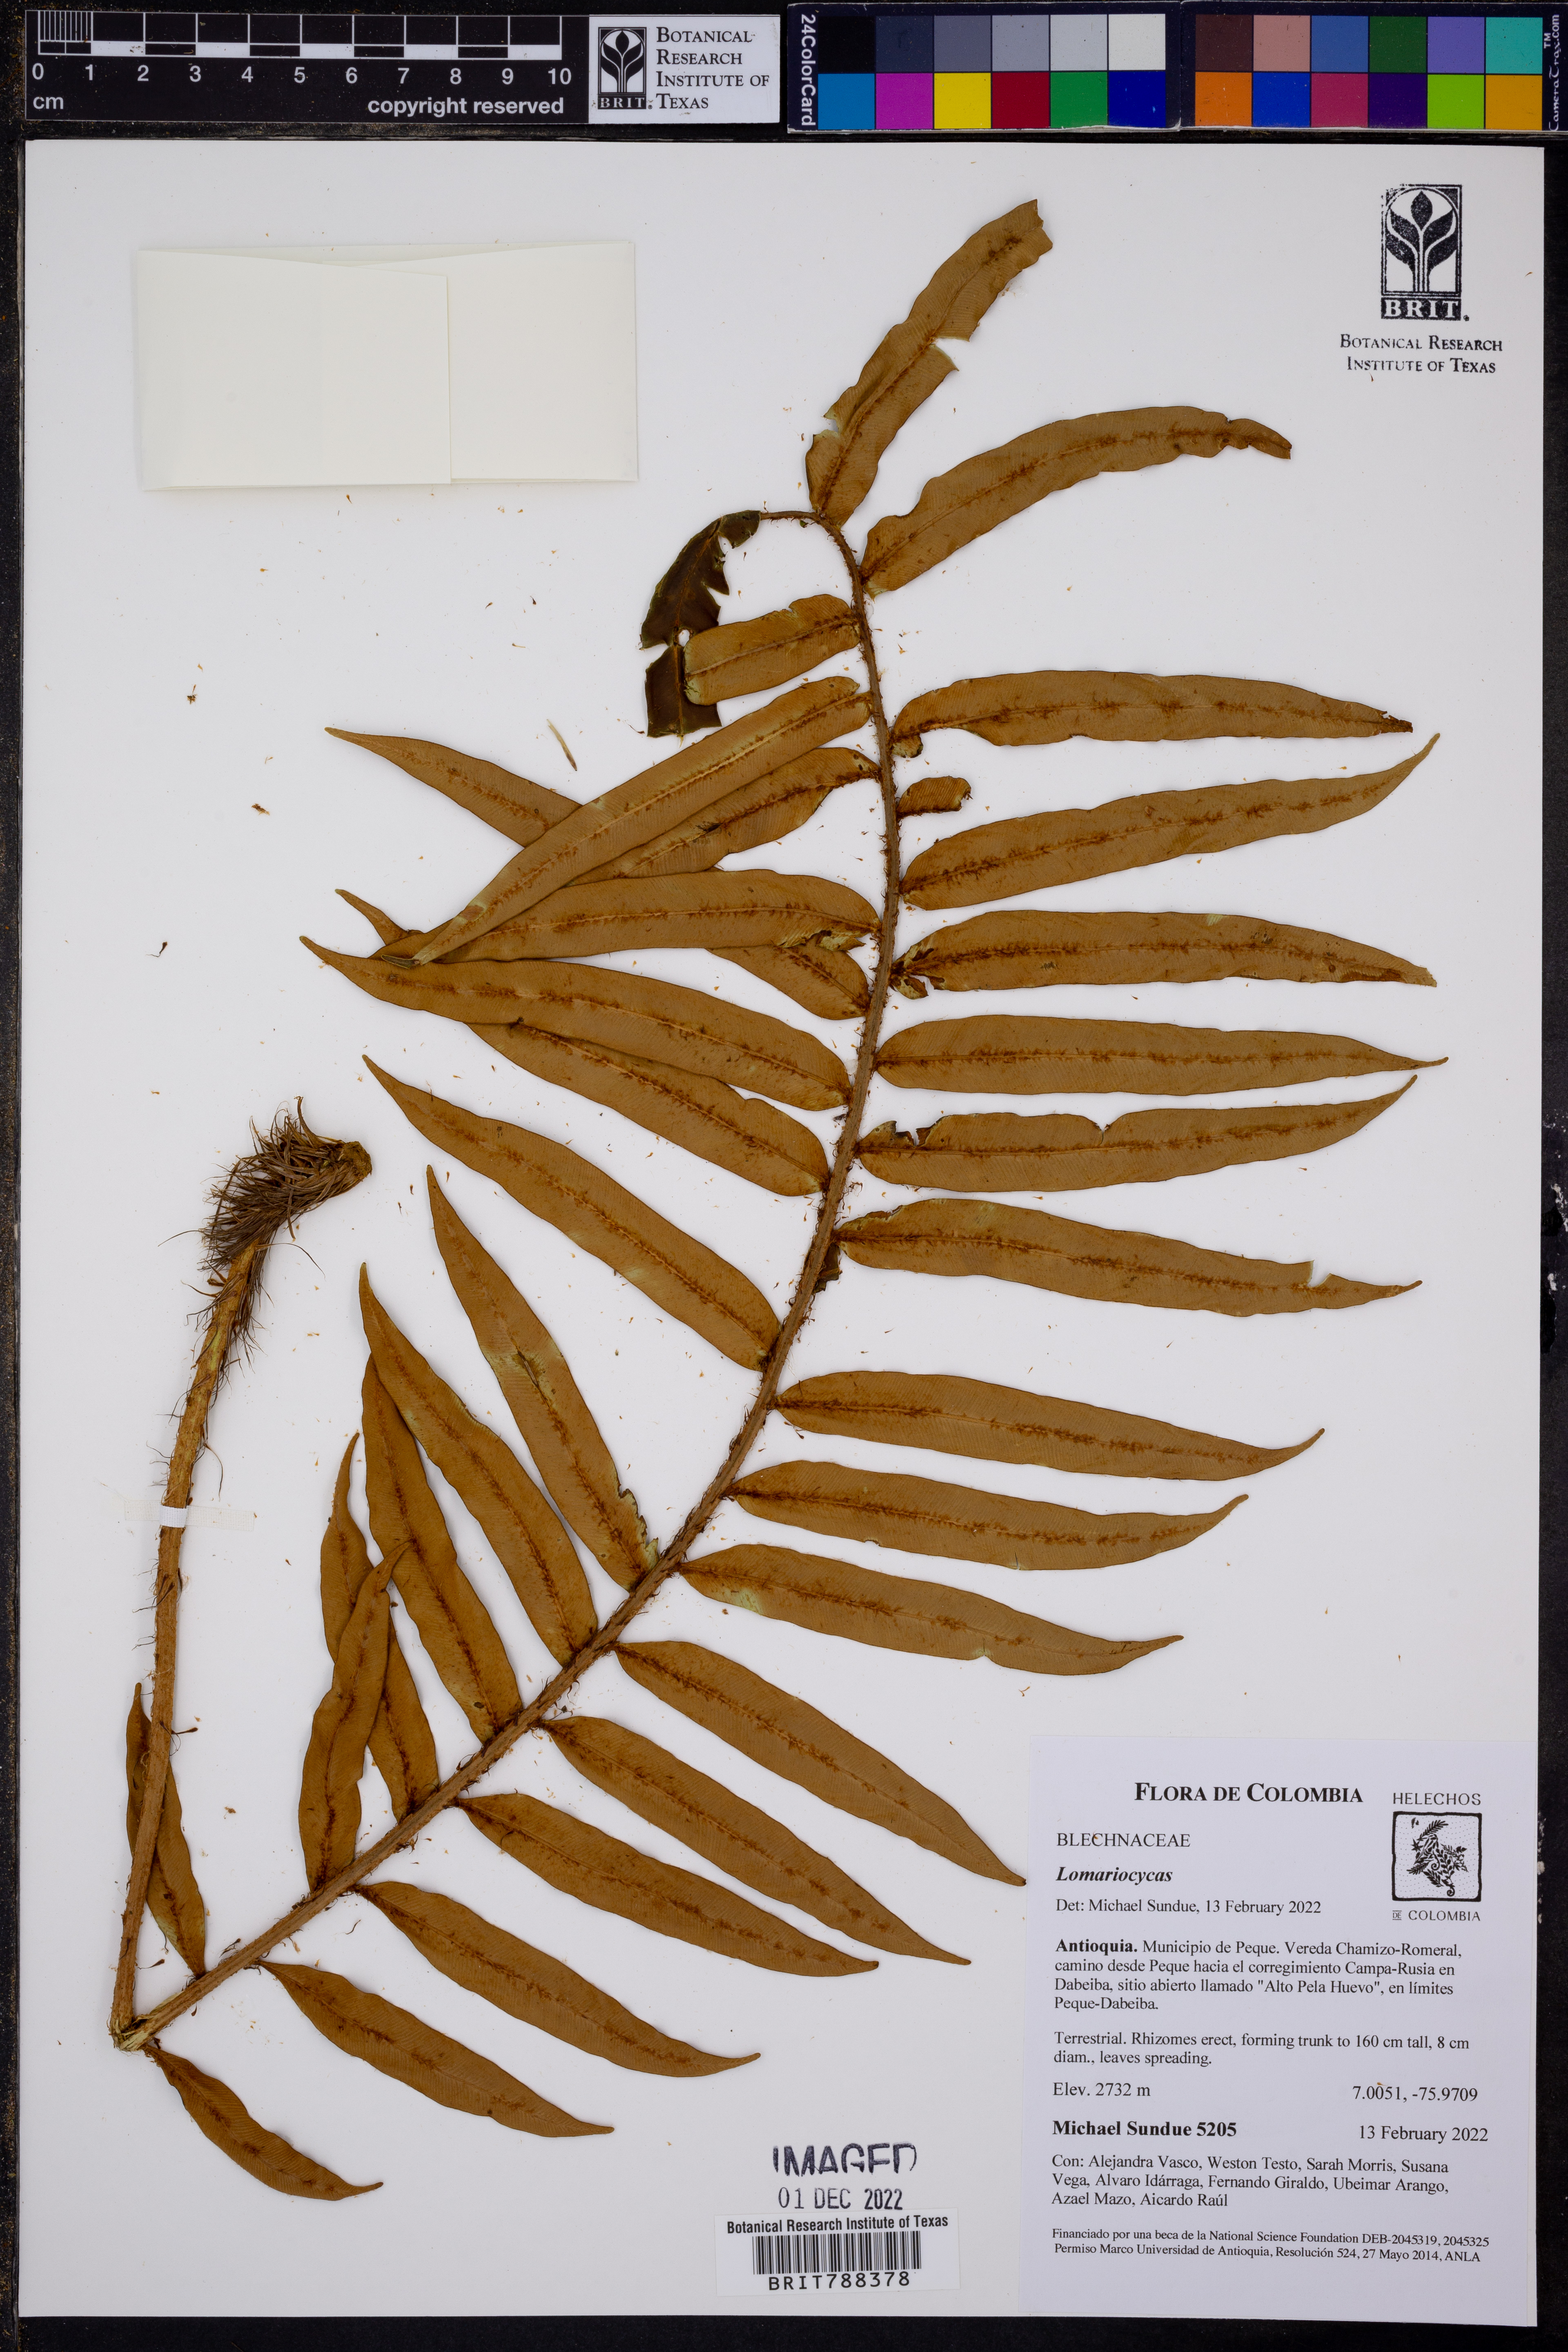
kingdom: Plantae
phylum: Tracheophyta
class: Polypodiopsida
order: Polypodiales
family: Blechnaceae
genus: Lomariocycas
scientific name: Lomariocycas schomburgkii
